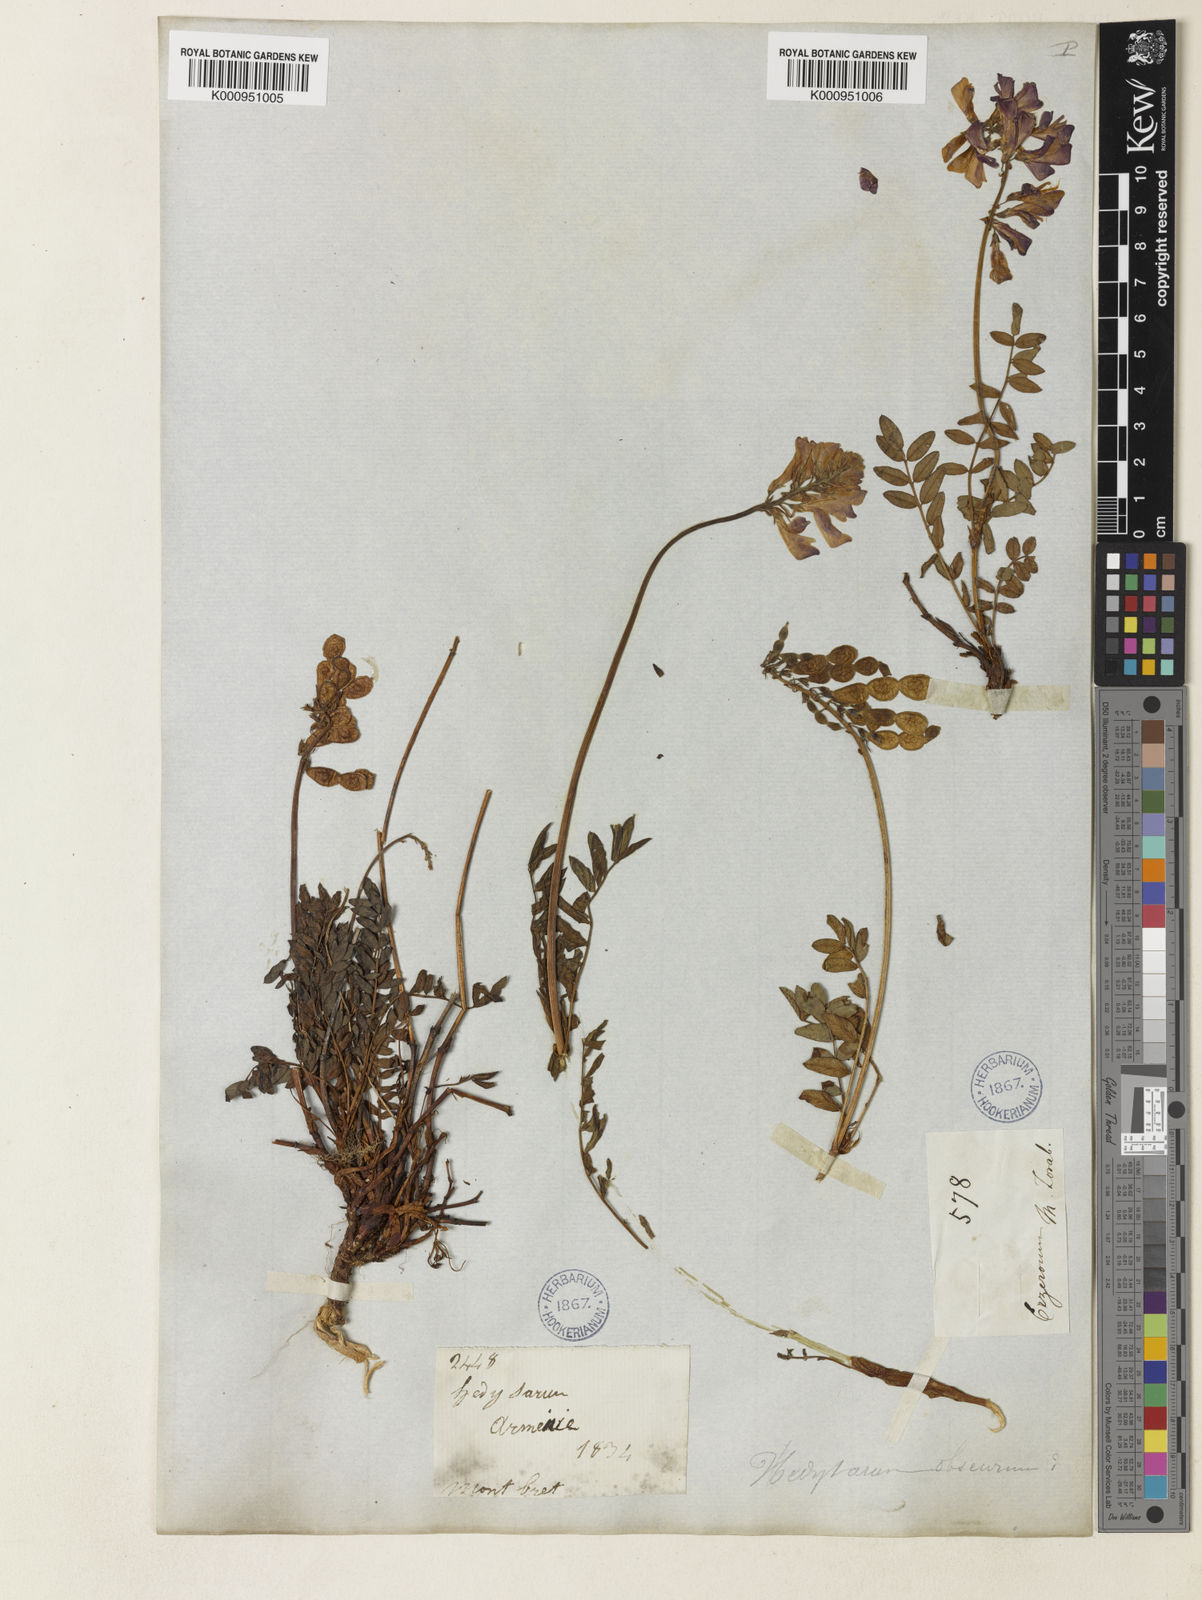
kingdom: Plantae
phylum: Tracheophyta
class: Magnoliopsida
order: Fabales
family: Fabaceae
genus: Onobrychis
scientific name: Onobrychis humilis
